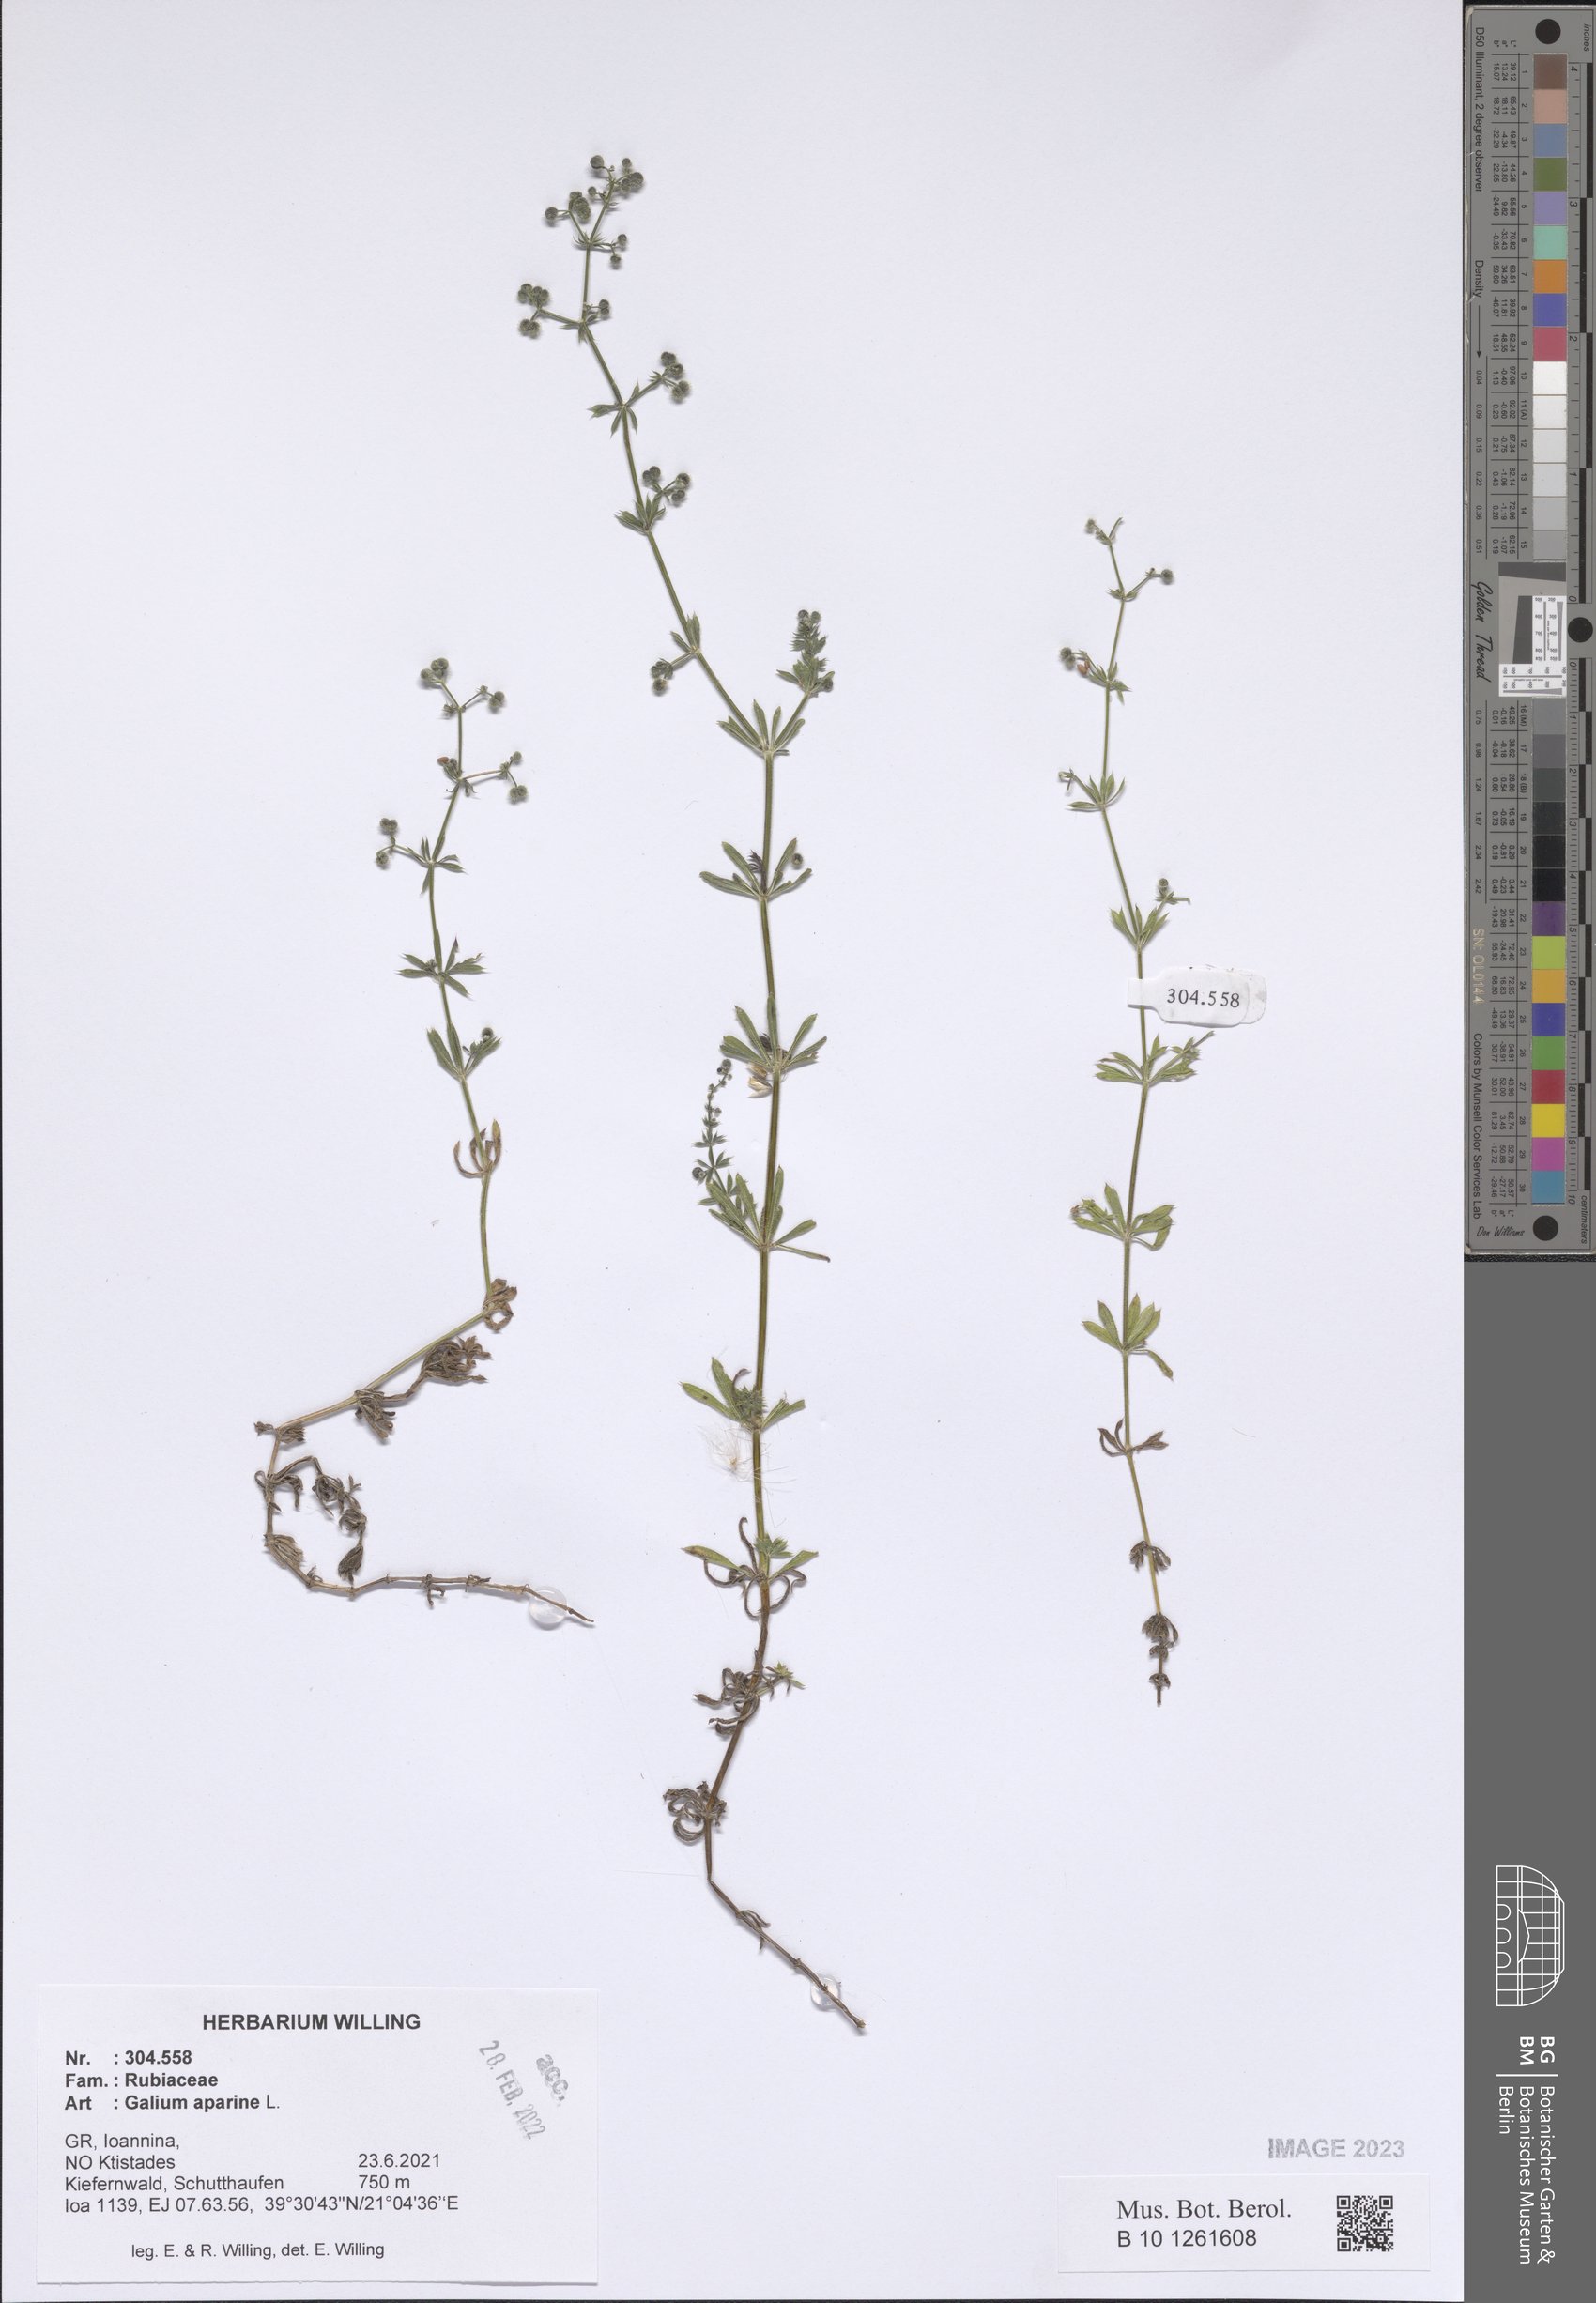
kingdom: Plantae
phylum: Tracheophyta
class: Magnoliopsida
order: Gentianales
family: Rubiaceae
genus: Galium
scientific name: Galium aparine
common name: Cleavers
